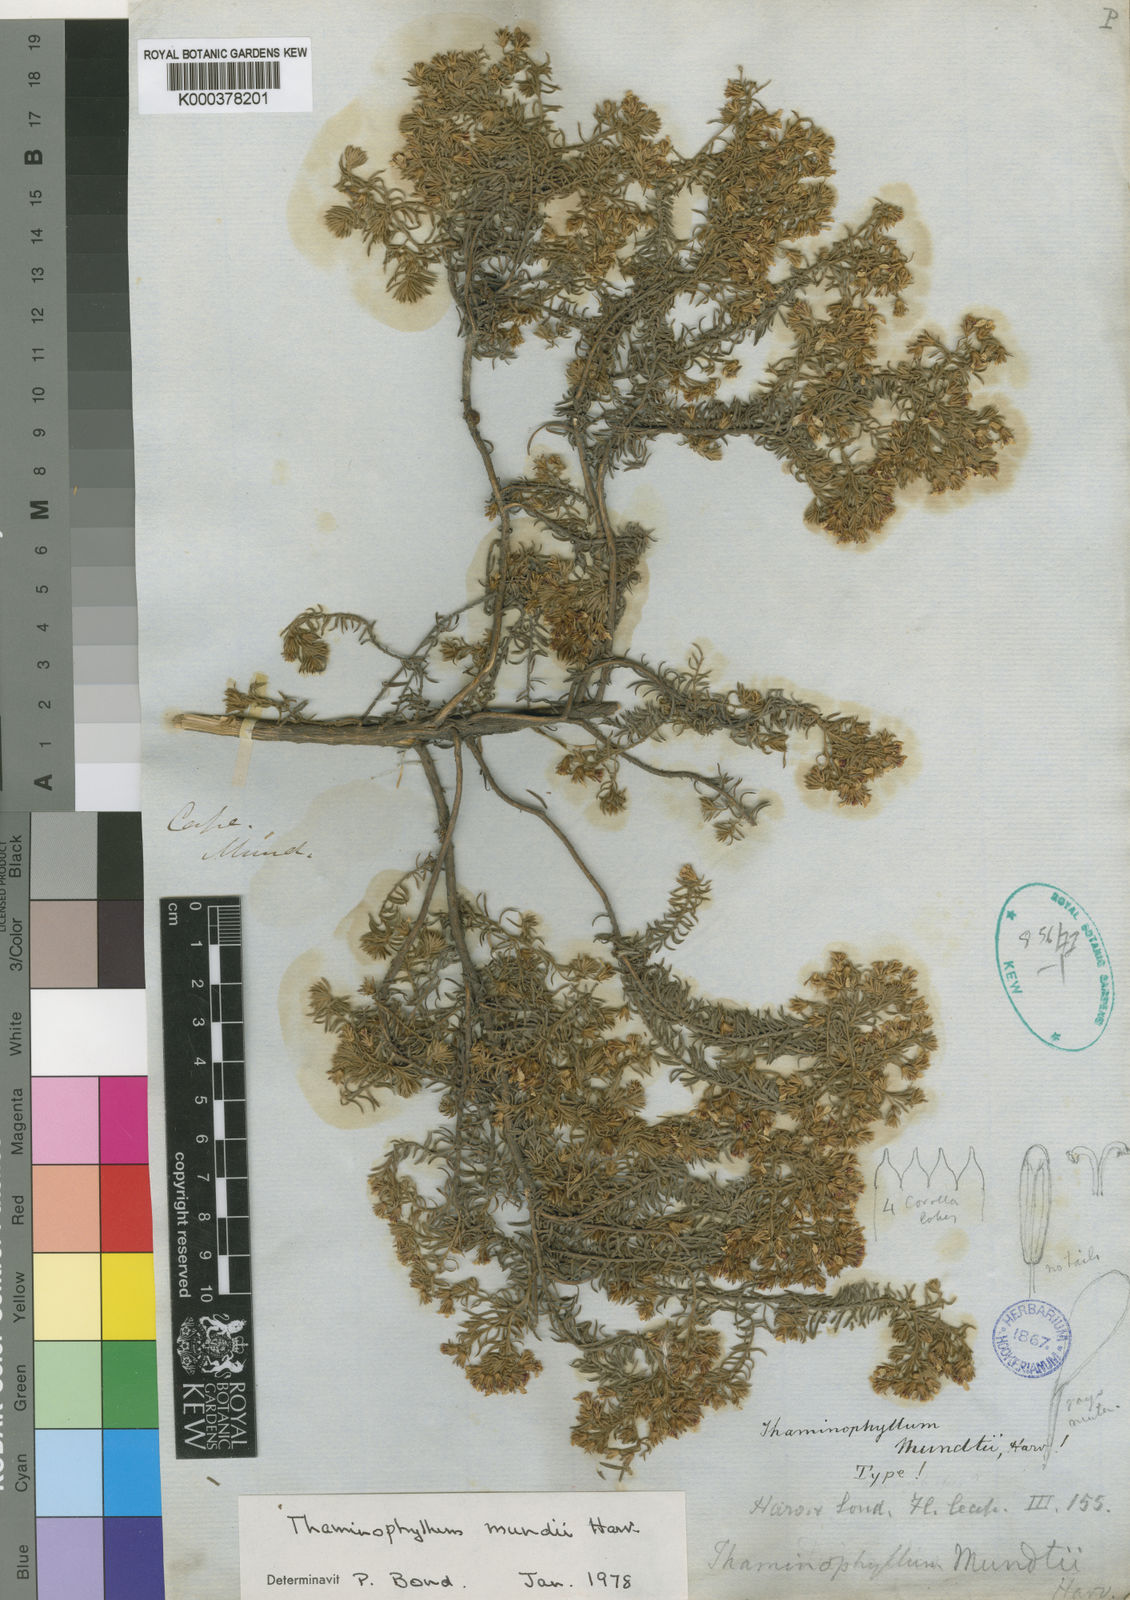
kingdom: Plantae
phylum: Tracheophyta
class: Magnoliopsida
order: Asterales
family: Asteraceae
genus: Thaminophyllum
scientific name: Thaminophyllum mundii
